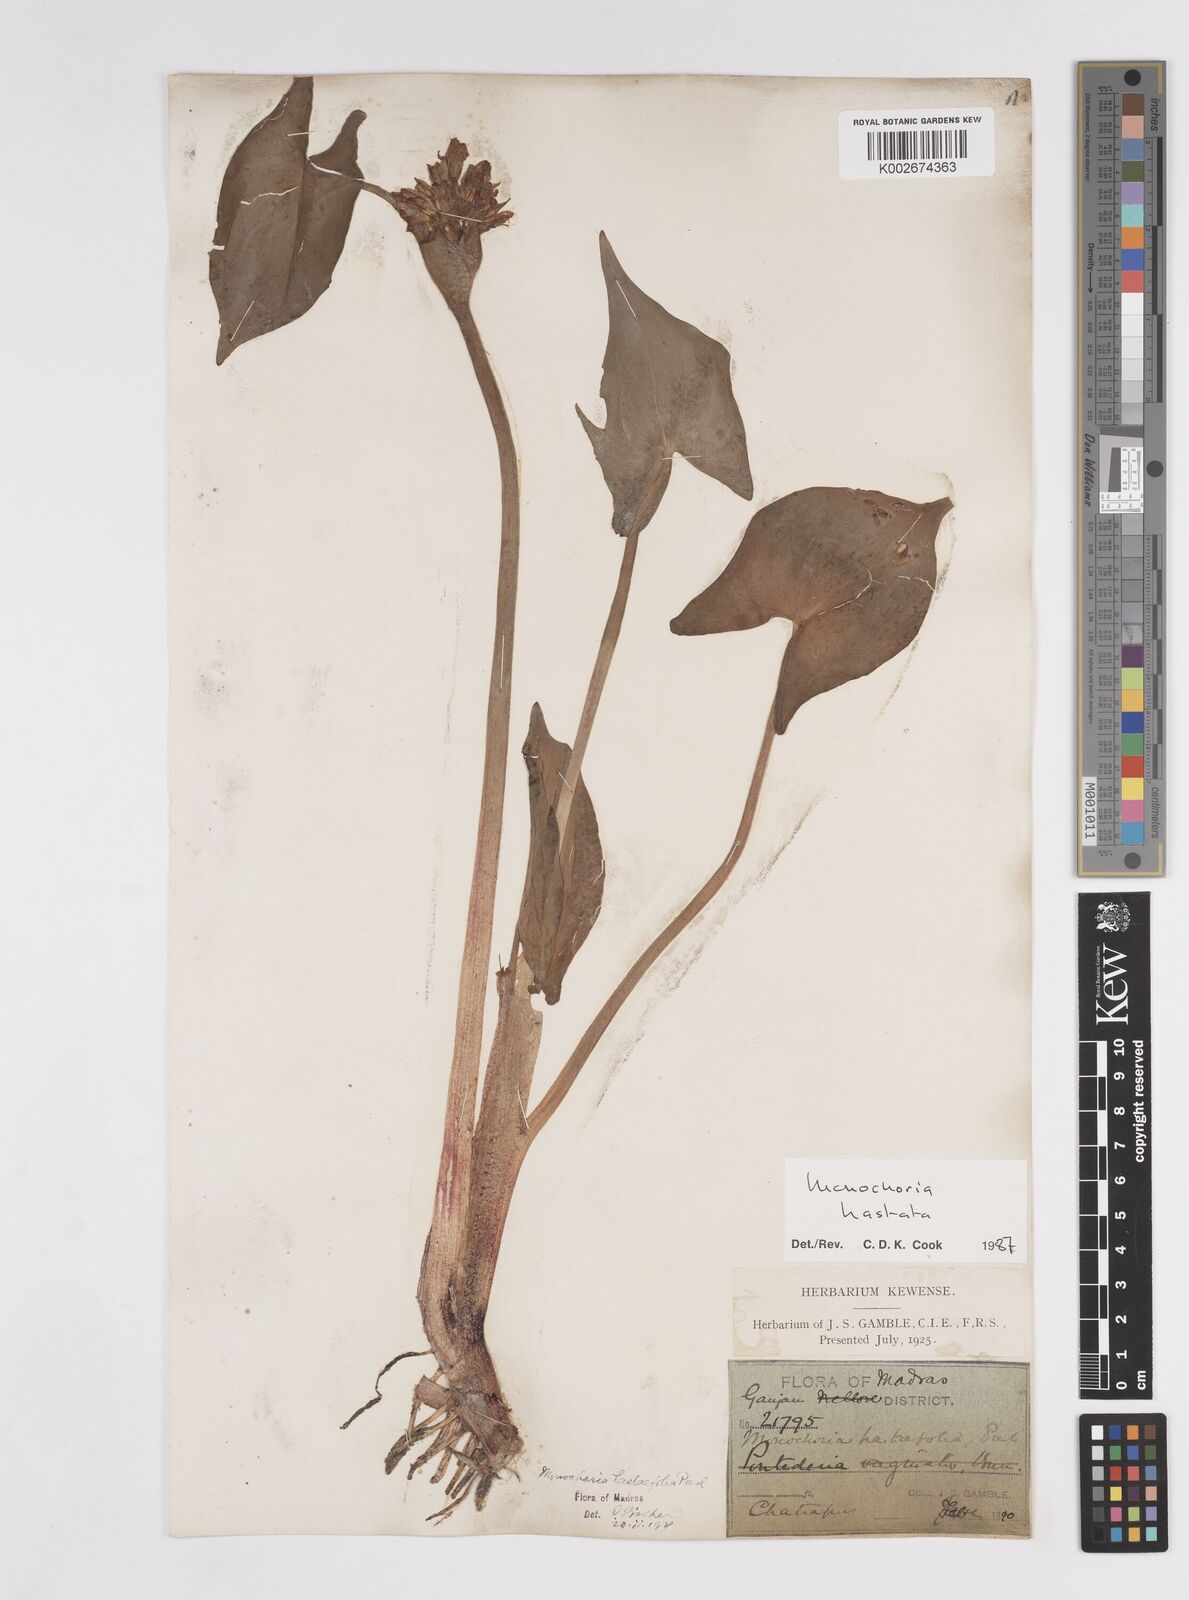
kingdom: Plantae
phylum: Tracheophyta
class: Liliopsida
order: Commelinales
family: Pontederiaceae
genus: Pontederia
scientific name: Pontederia hastata
